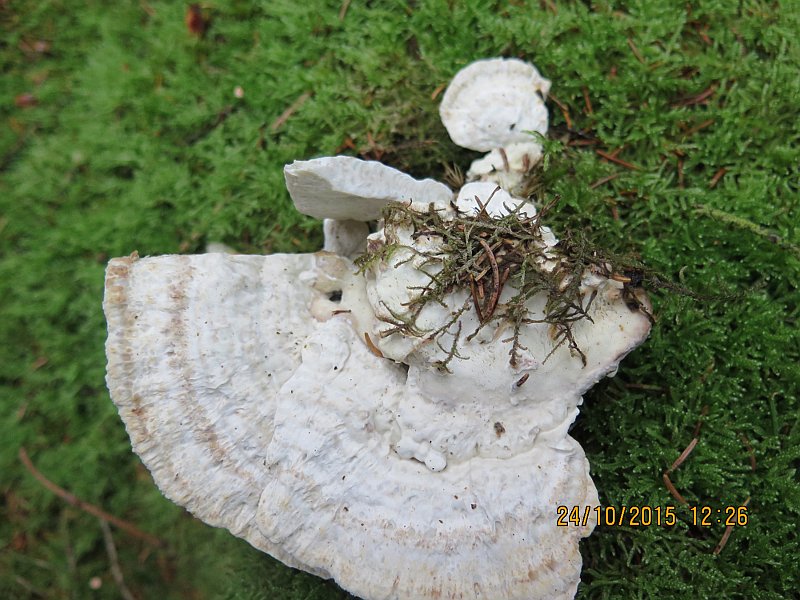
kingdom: Fungi
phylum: Basidiomycota
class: Agaricomycetes
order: Polyporales
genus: Calcipostia
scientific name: Calcipostia guttulata
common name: dråbe-kødporesvamp
